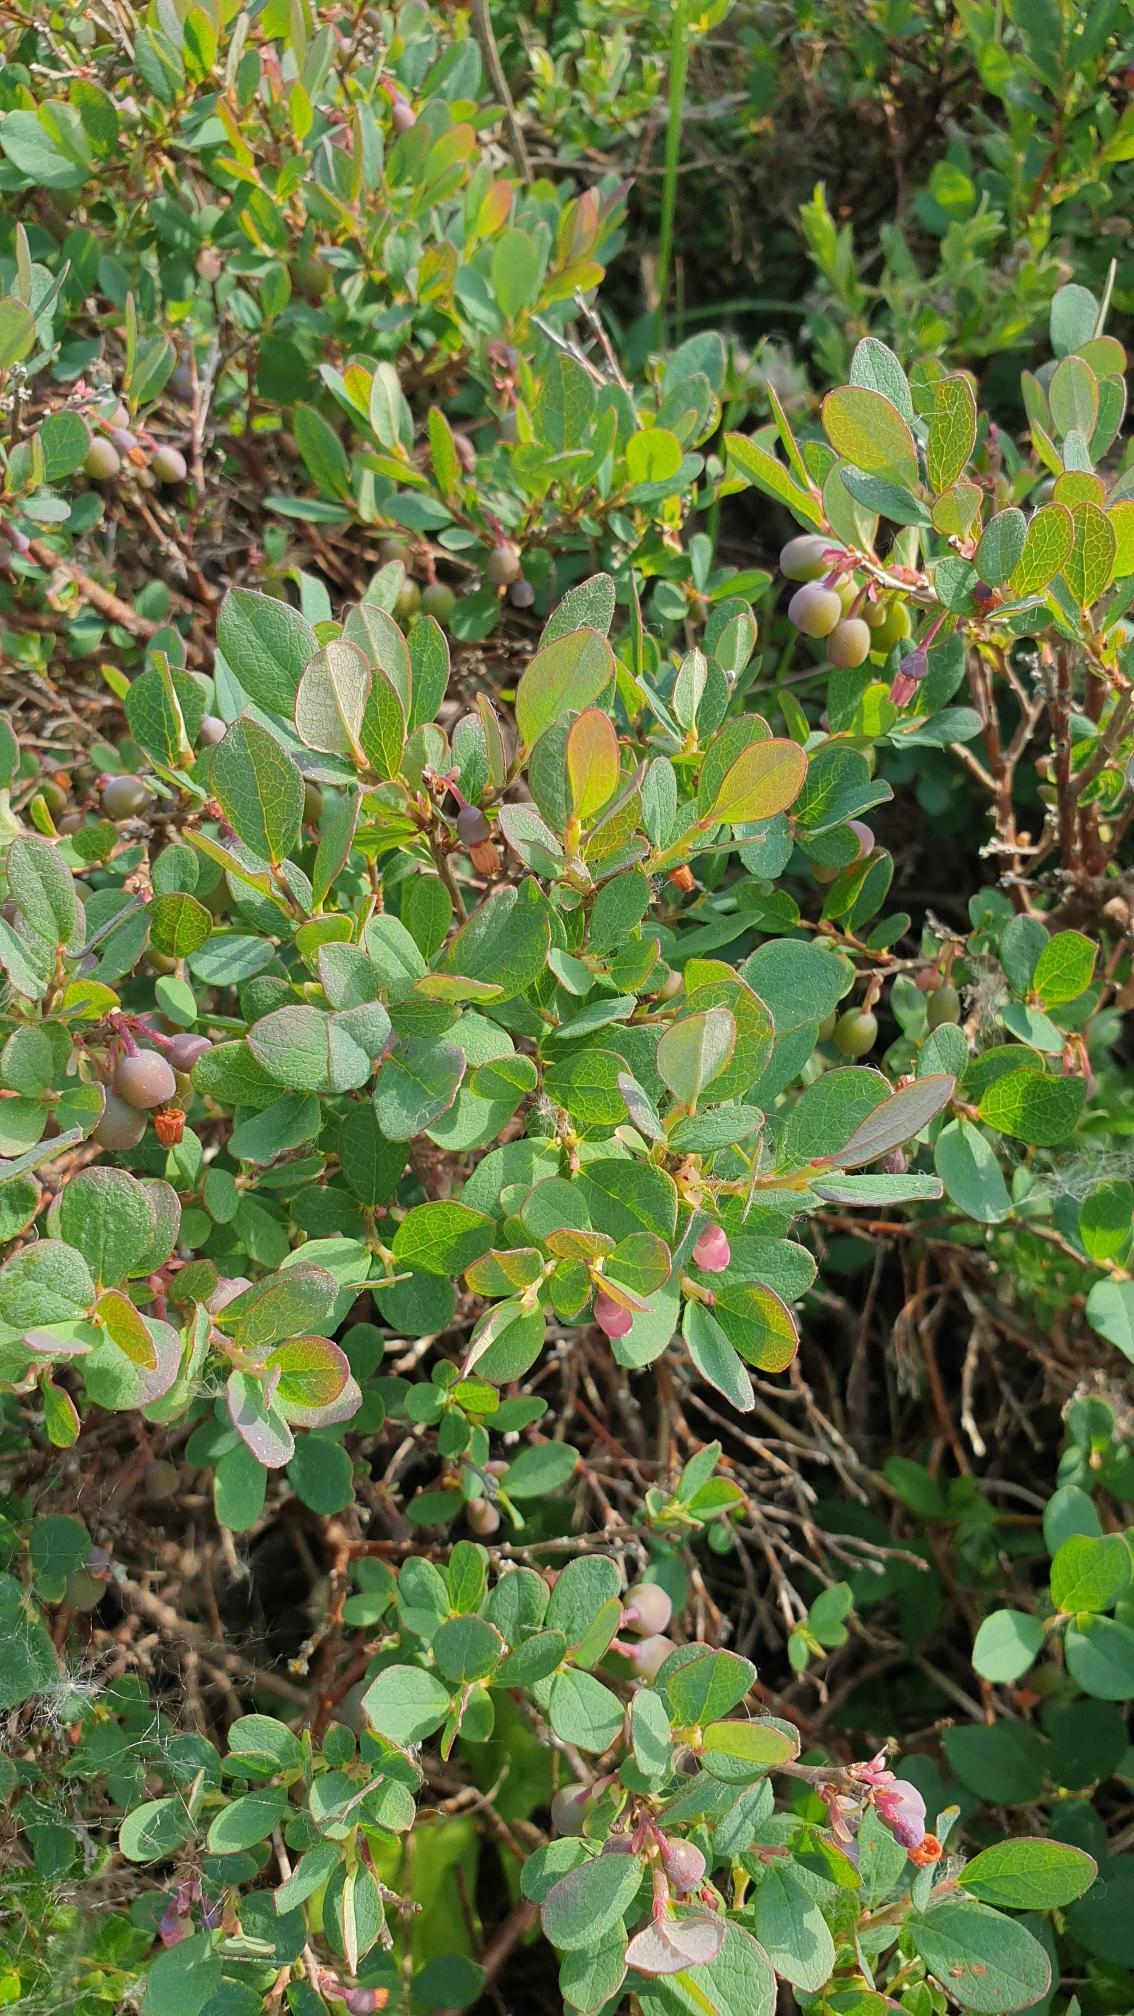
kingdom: Plantae
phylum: Tracheophyta
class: Magnoliopsida
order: Ericales
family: Ericaceae
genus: Vaccinium
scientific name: Vaccinium uliginosum
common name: Mose-bølle
